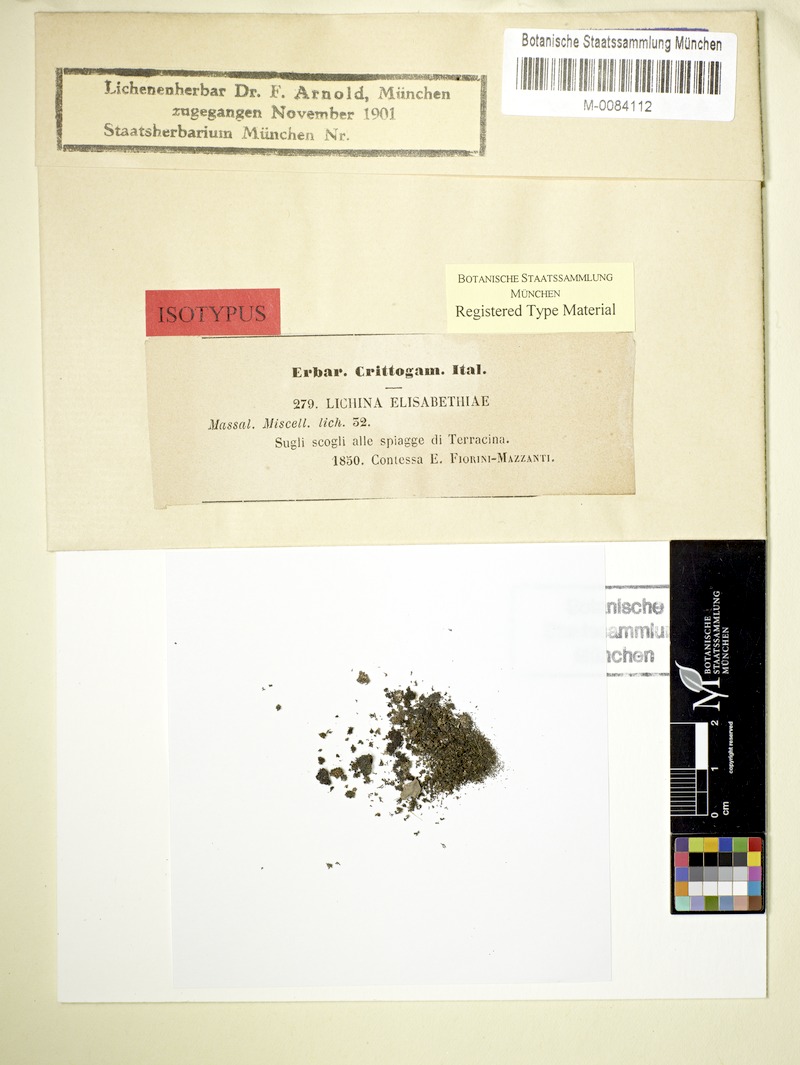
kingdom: Fungi
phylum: Ascomycota
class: Lichinomycetes
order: Lichinales
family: Lichinaceae
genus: Lichina
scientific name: Lichina
